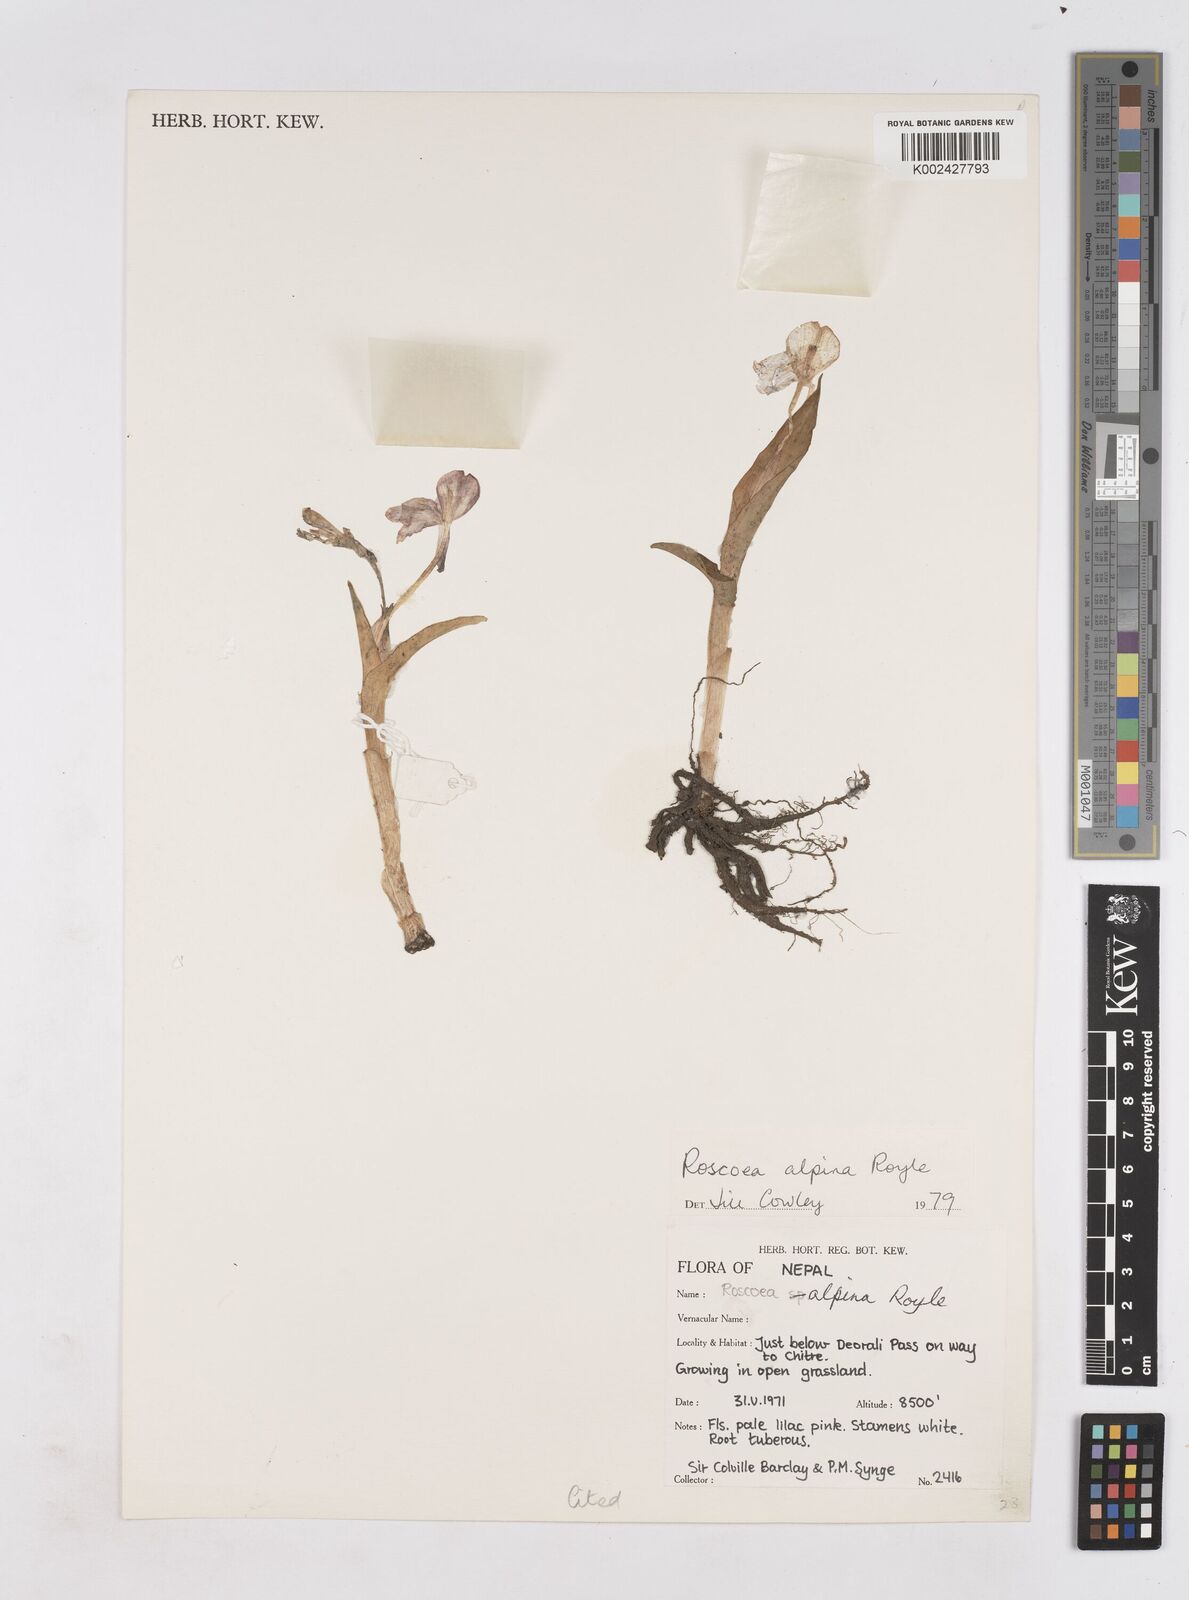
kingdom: Plantae
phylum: Tracheophyta
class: Liliopsida
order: Zingiberales
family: Zingiberaceae
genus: Roscoea
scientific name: Roscoea alpina
